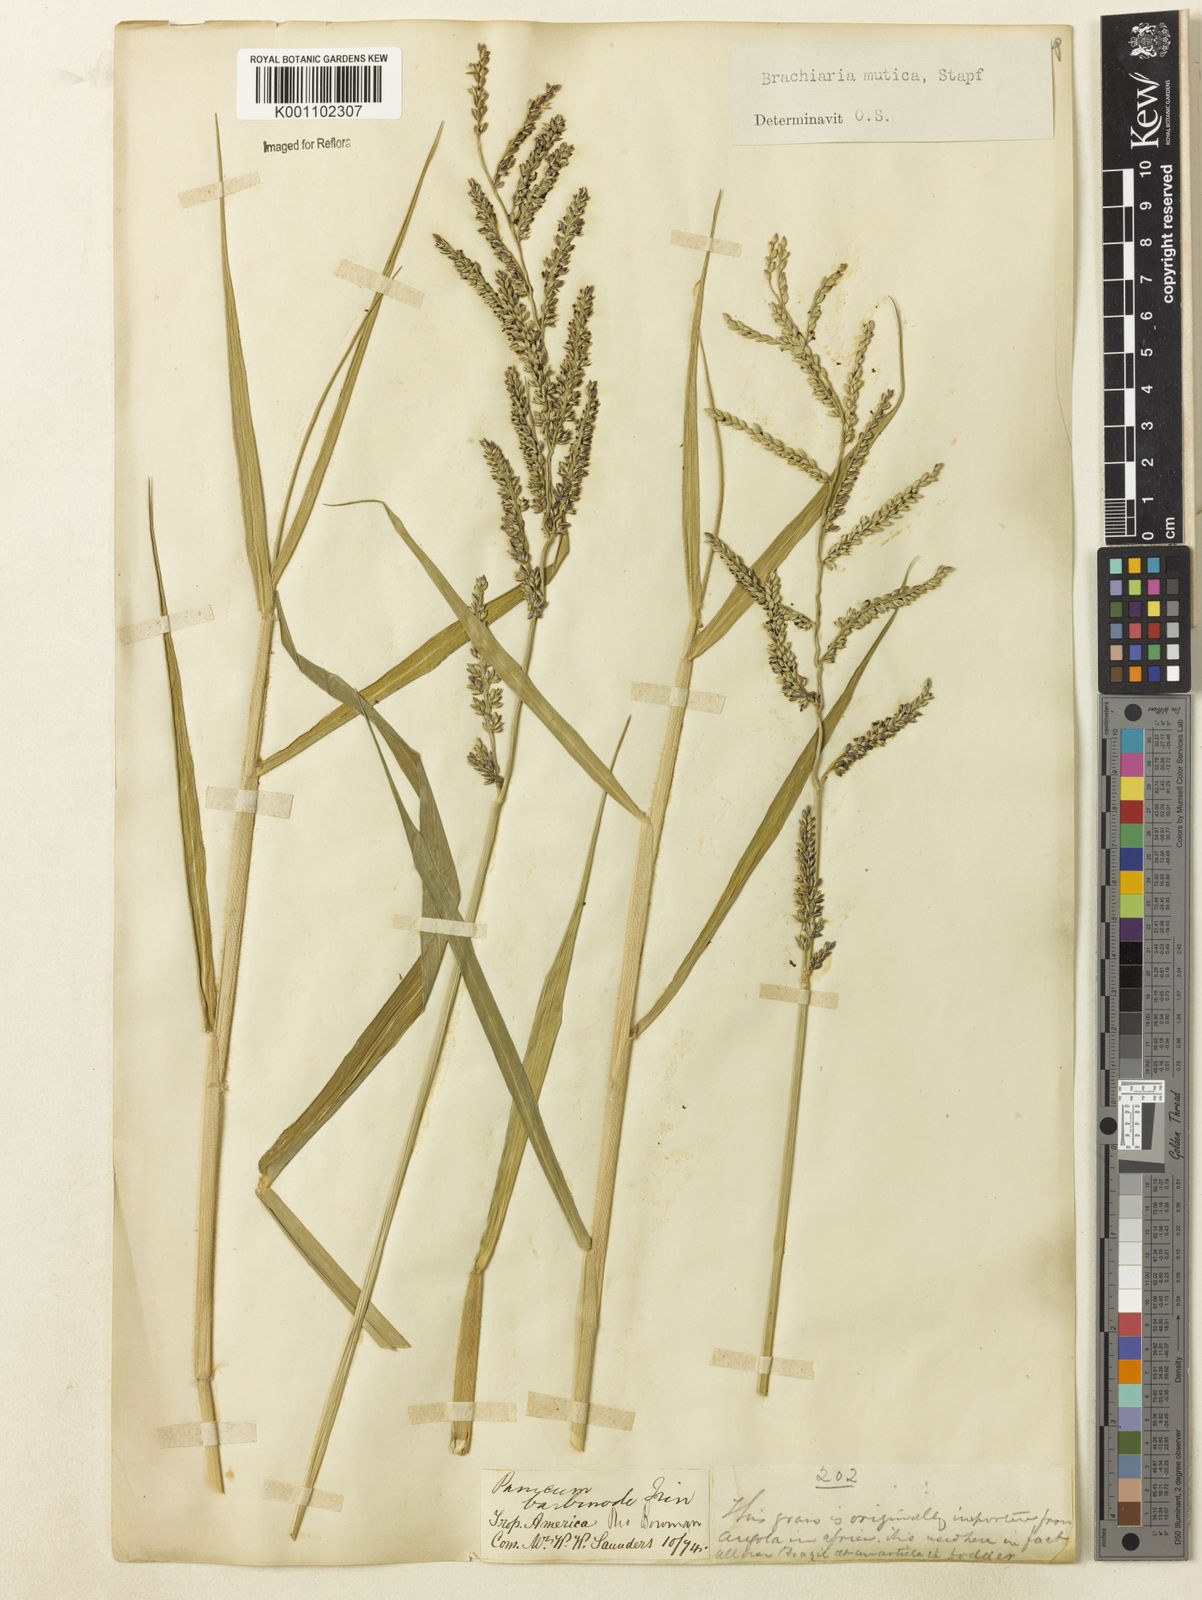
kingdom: Plantae
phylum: Tracheophyta
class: Liliopsida
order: Poales
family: Poaceae
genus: Urochloa
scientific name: Urochloa mutica
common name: Para grass
